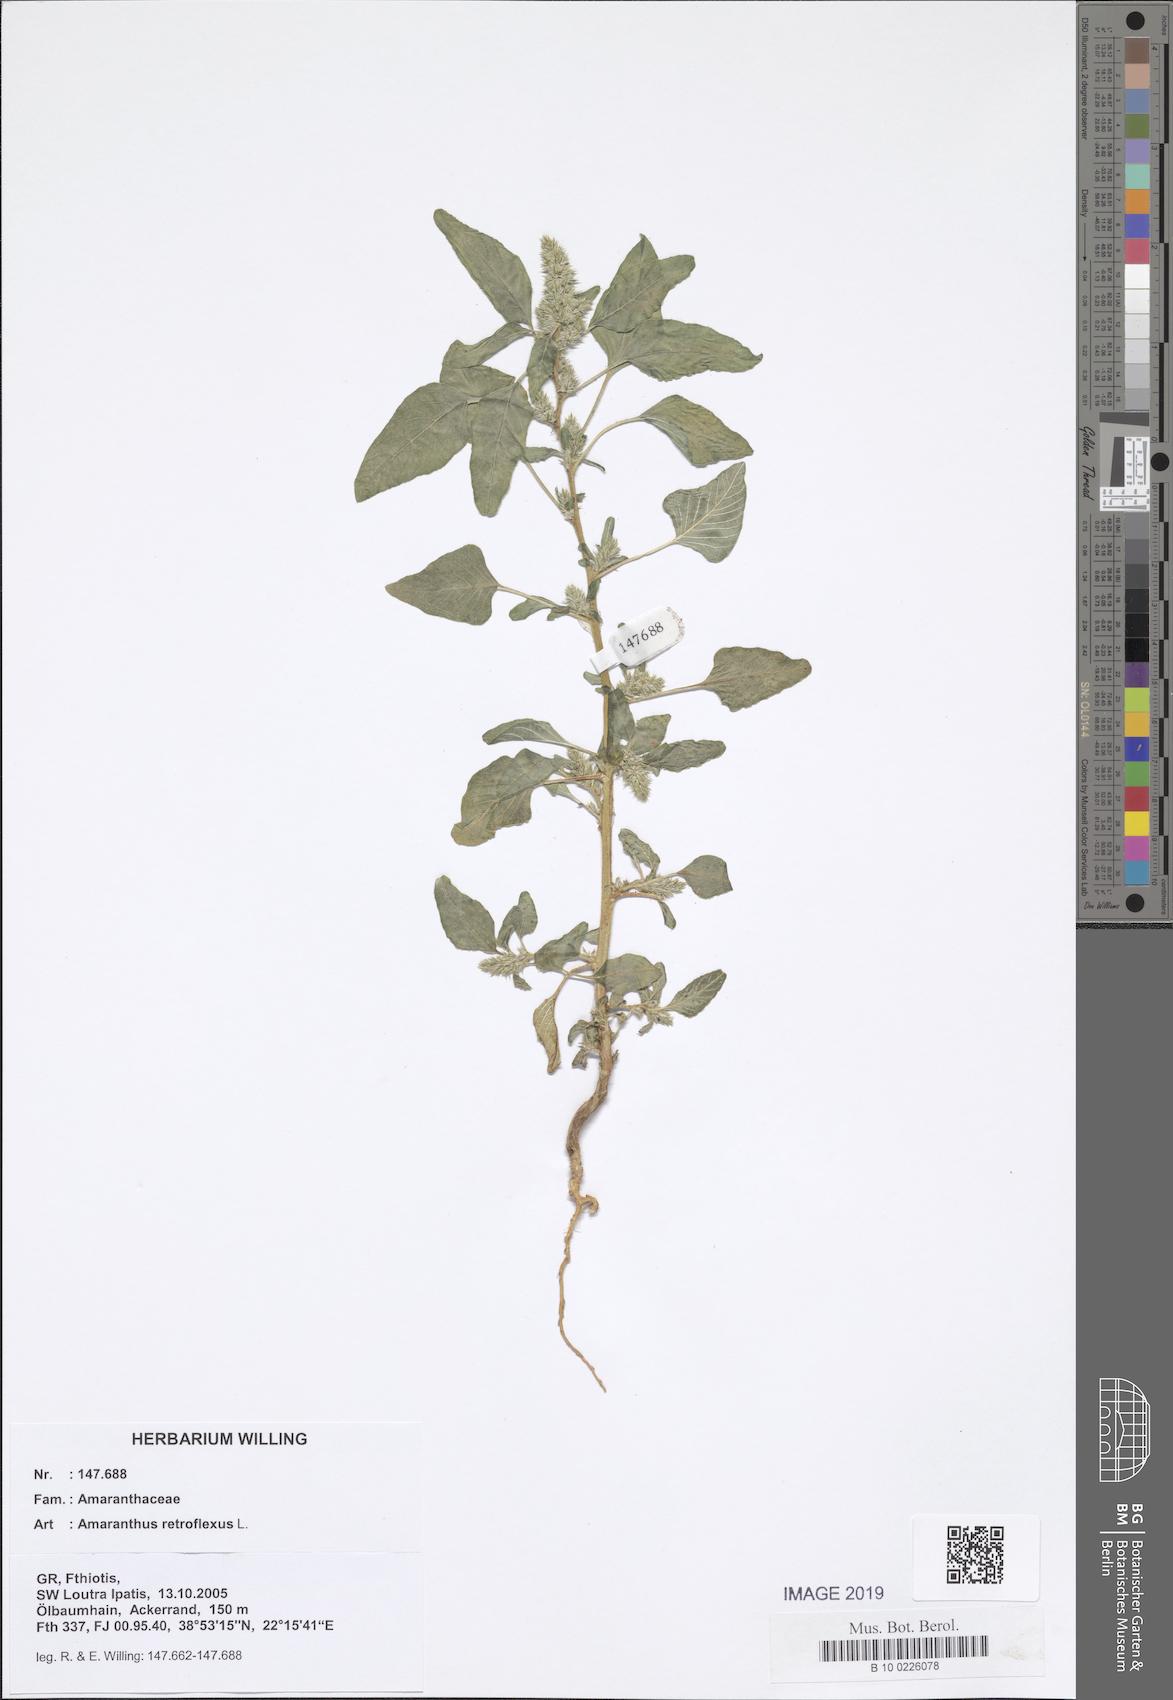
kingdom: Plantae
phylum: Tracheophyta
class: Magnoliopsida
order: Caryophyllales
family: Amaranthaceae
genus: Amaranthus
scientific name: Amaranthus retroflexus
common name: Redroot amaranth
